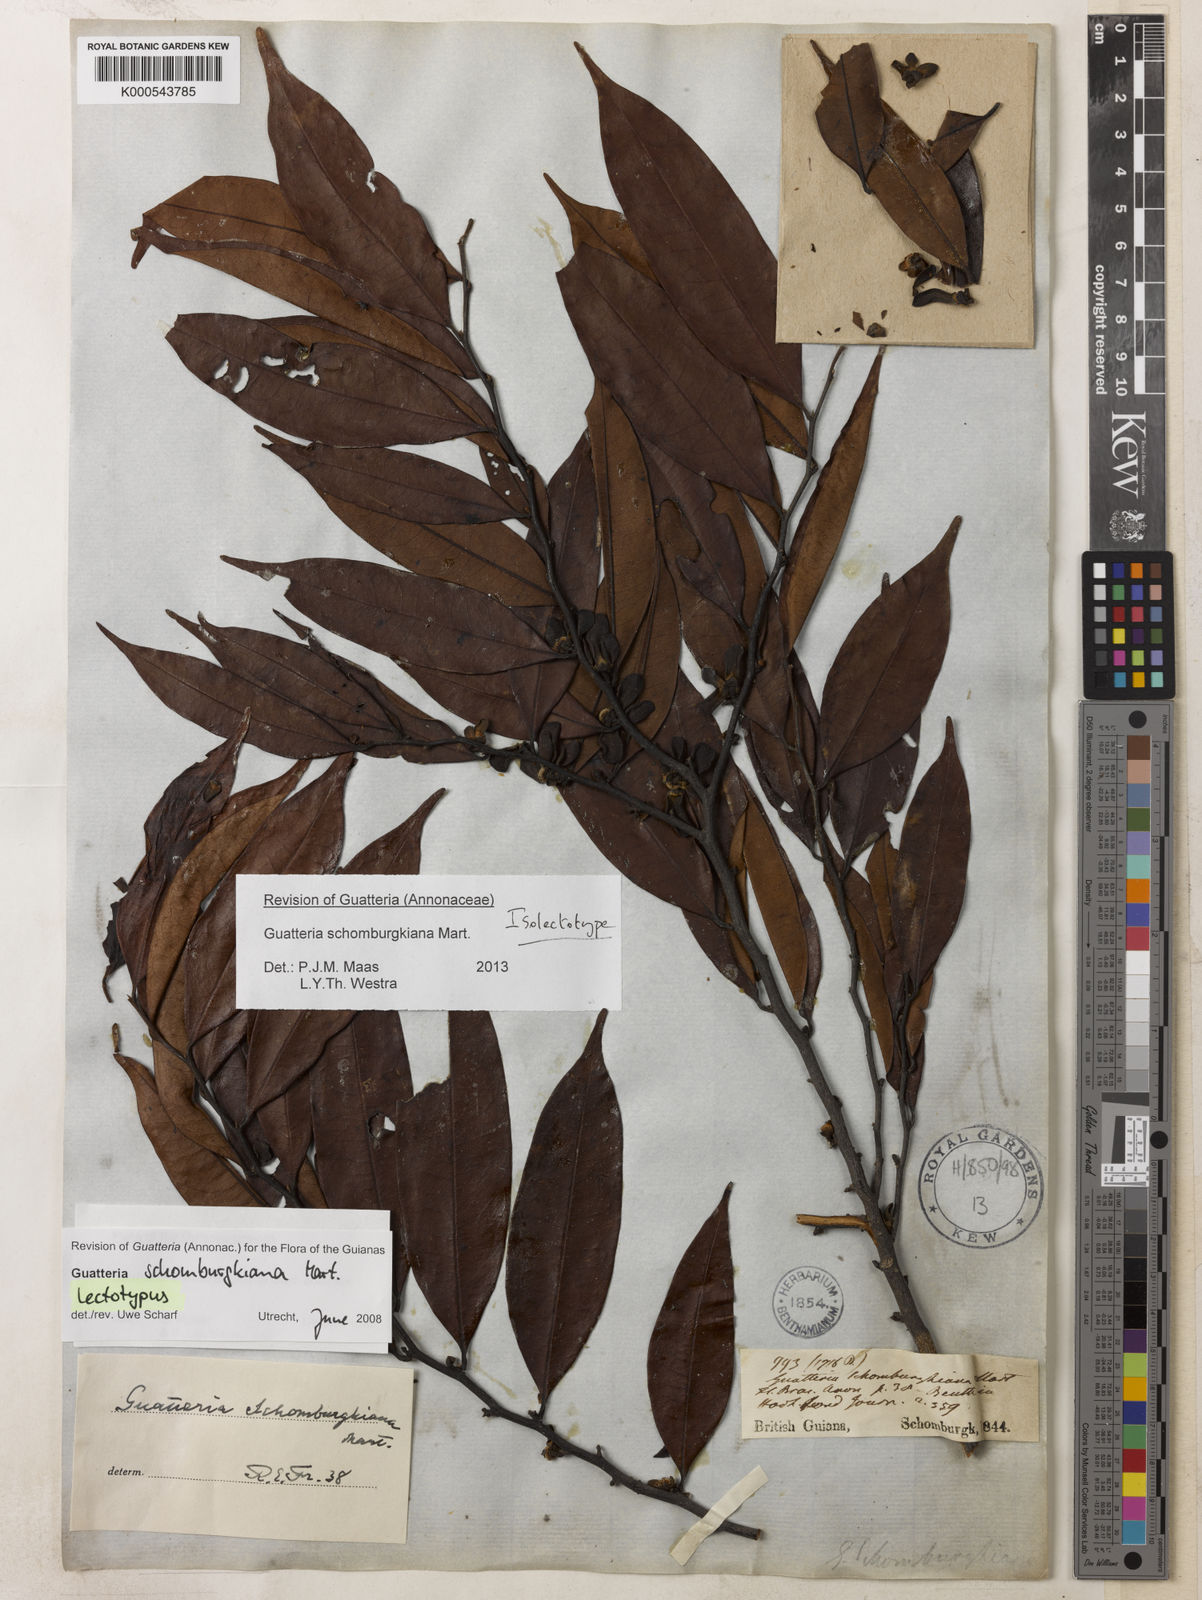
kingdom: Plantae
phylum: Tracheophyta
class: Magnoliopsida
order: Magnoliales
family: Annonaceae
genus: Guatteria
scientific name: Guatteria schomburgkiana
